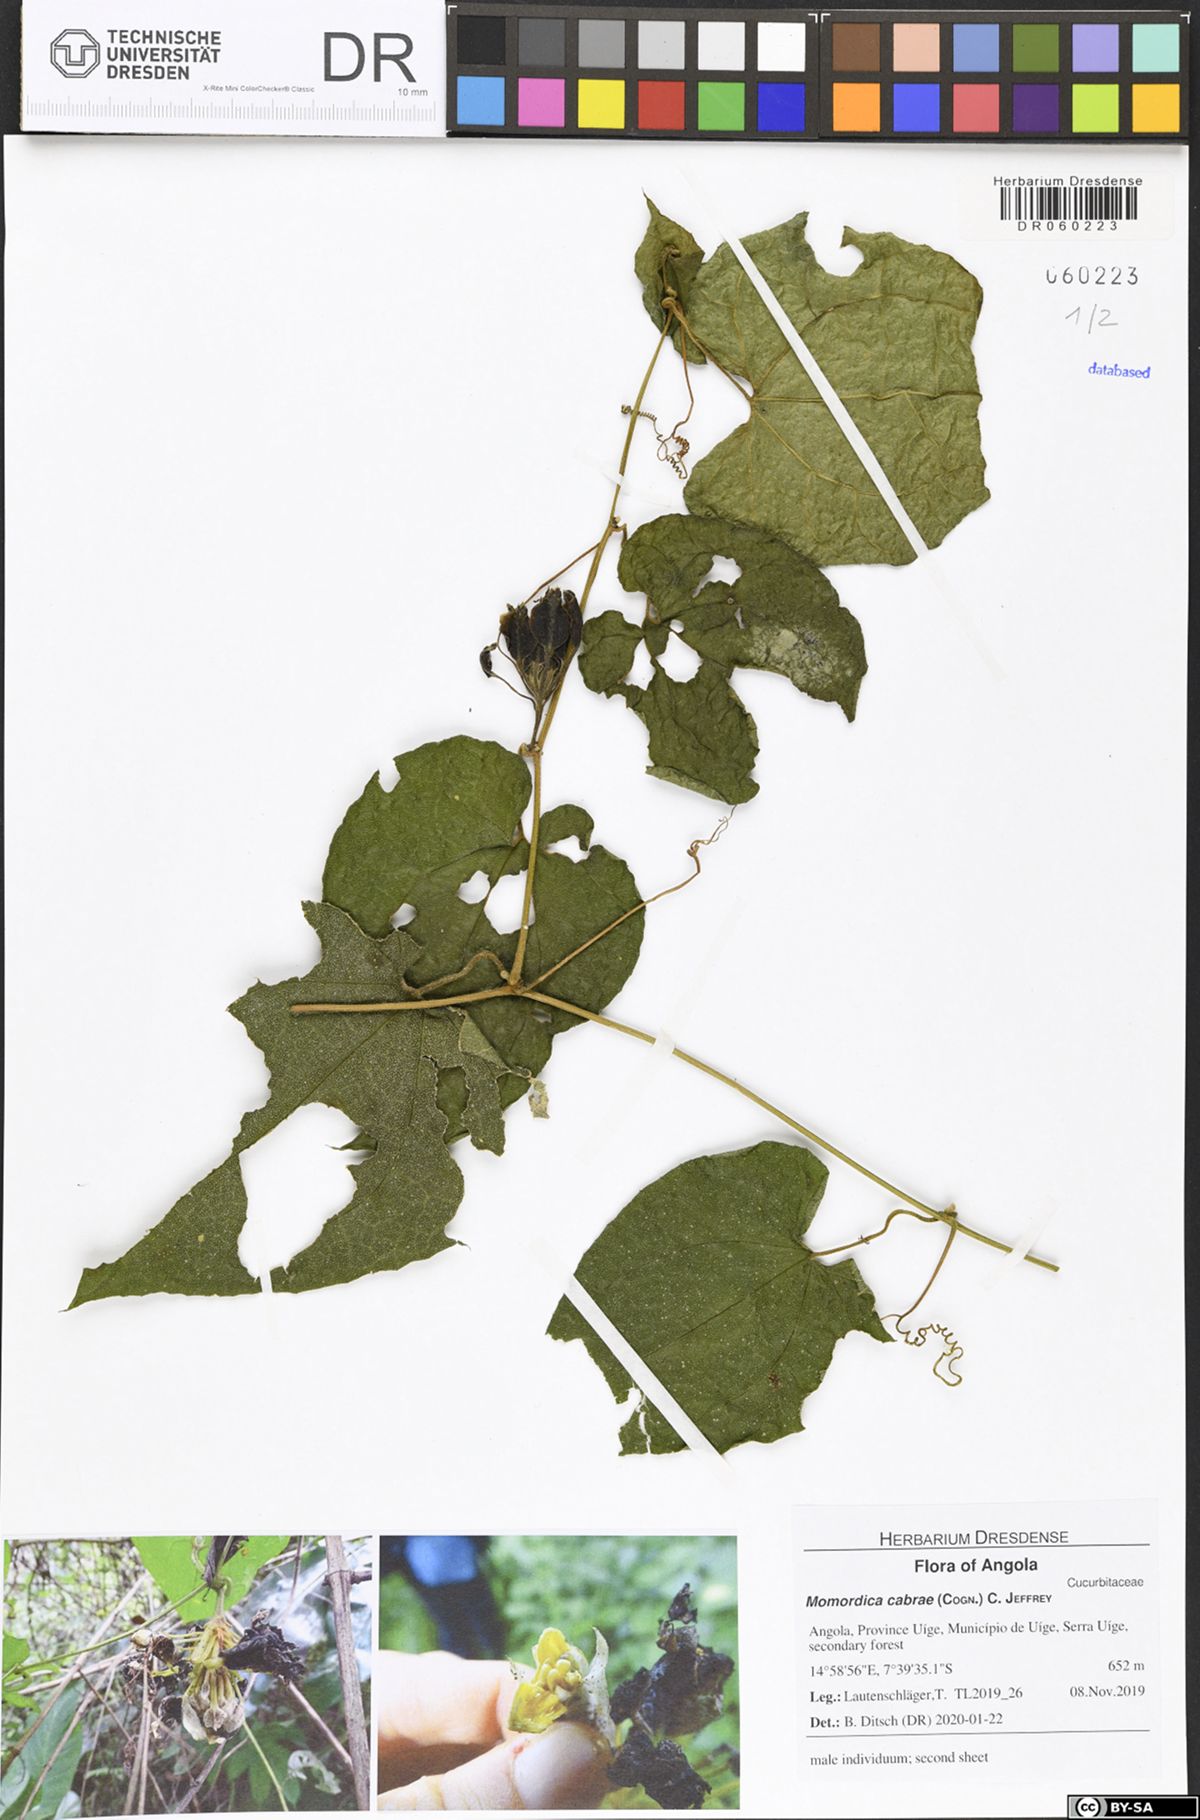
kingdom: Plantae
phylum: Tracheophyta
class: Magnoliopsida
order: Cucurbitales
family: Cucurbitaceae
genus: Momordica
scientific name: Momordica cabrae
